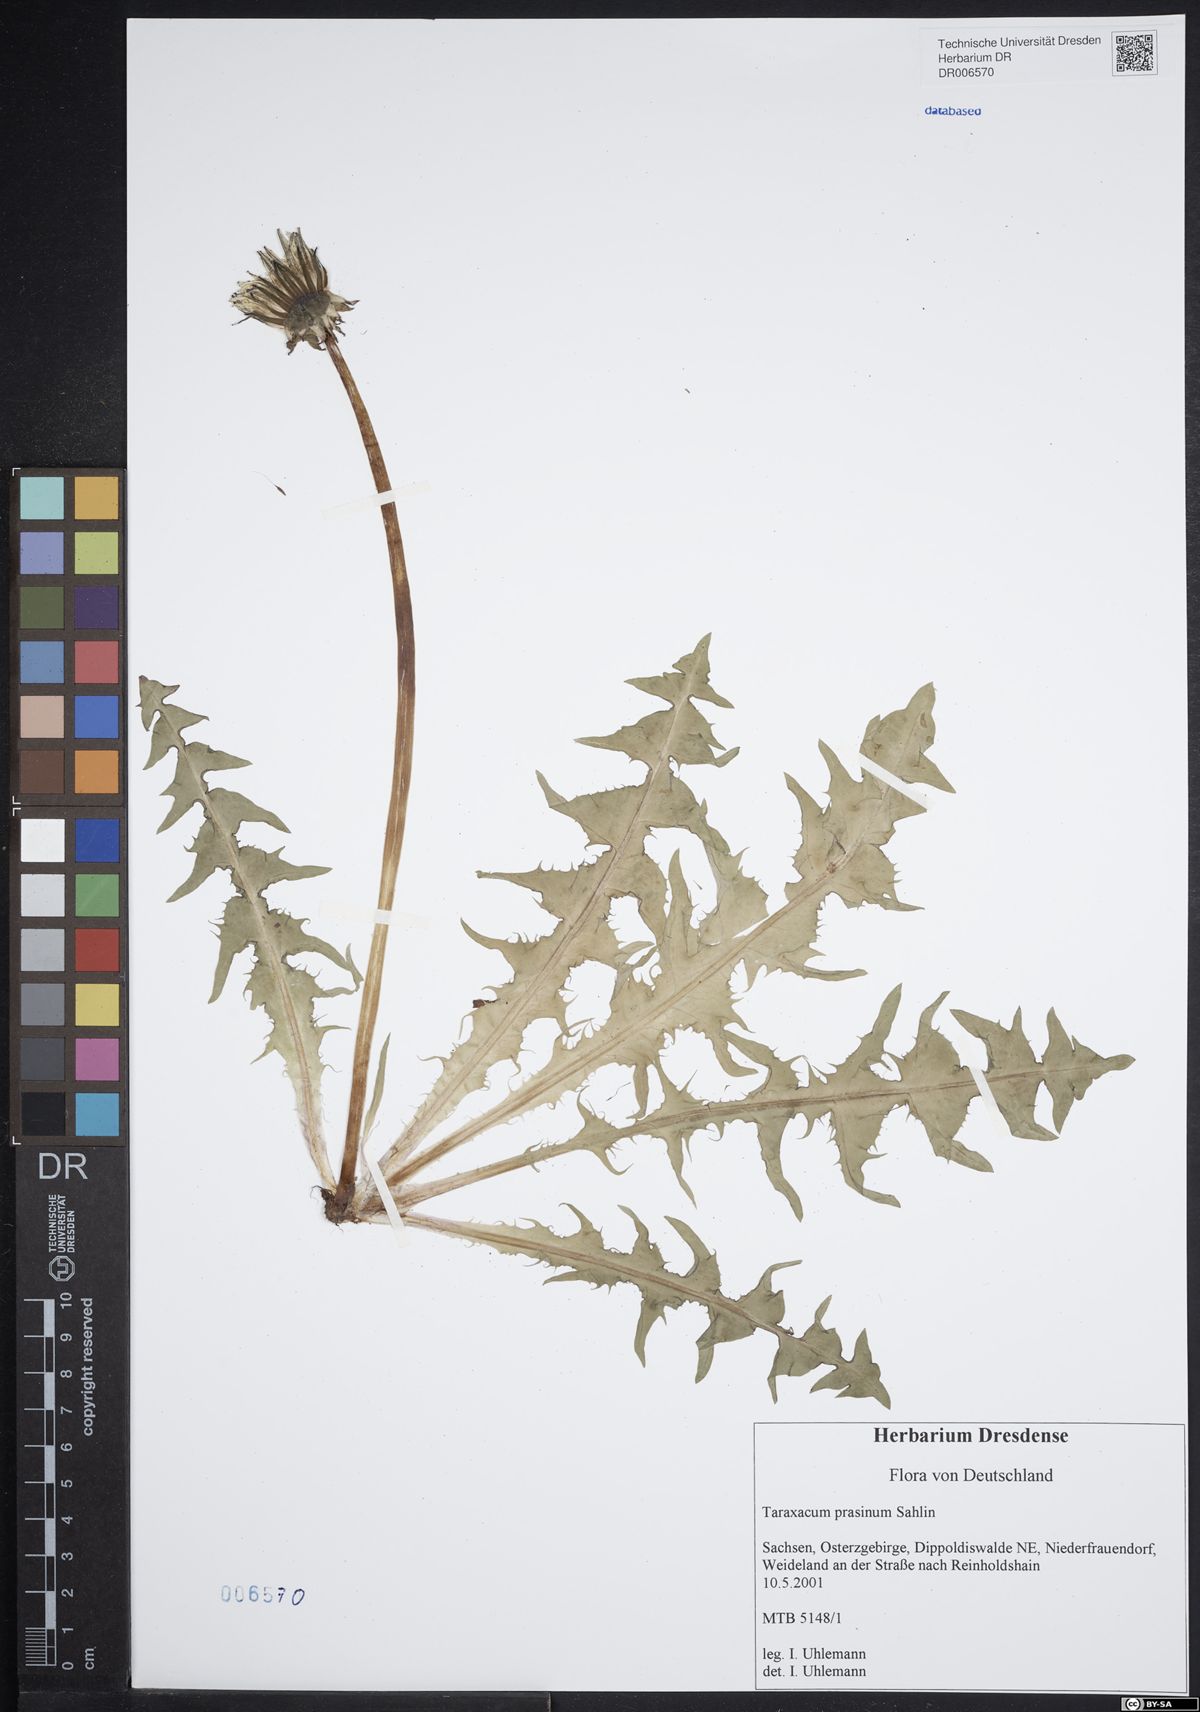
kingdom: Plantae
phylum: Tracheophyta
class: Magnoliopsida
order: Asterales
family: Asteraceae
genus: Taraxacum
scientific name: Taraxacum prasinum
